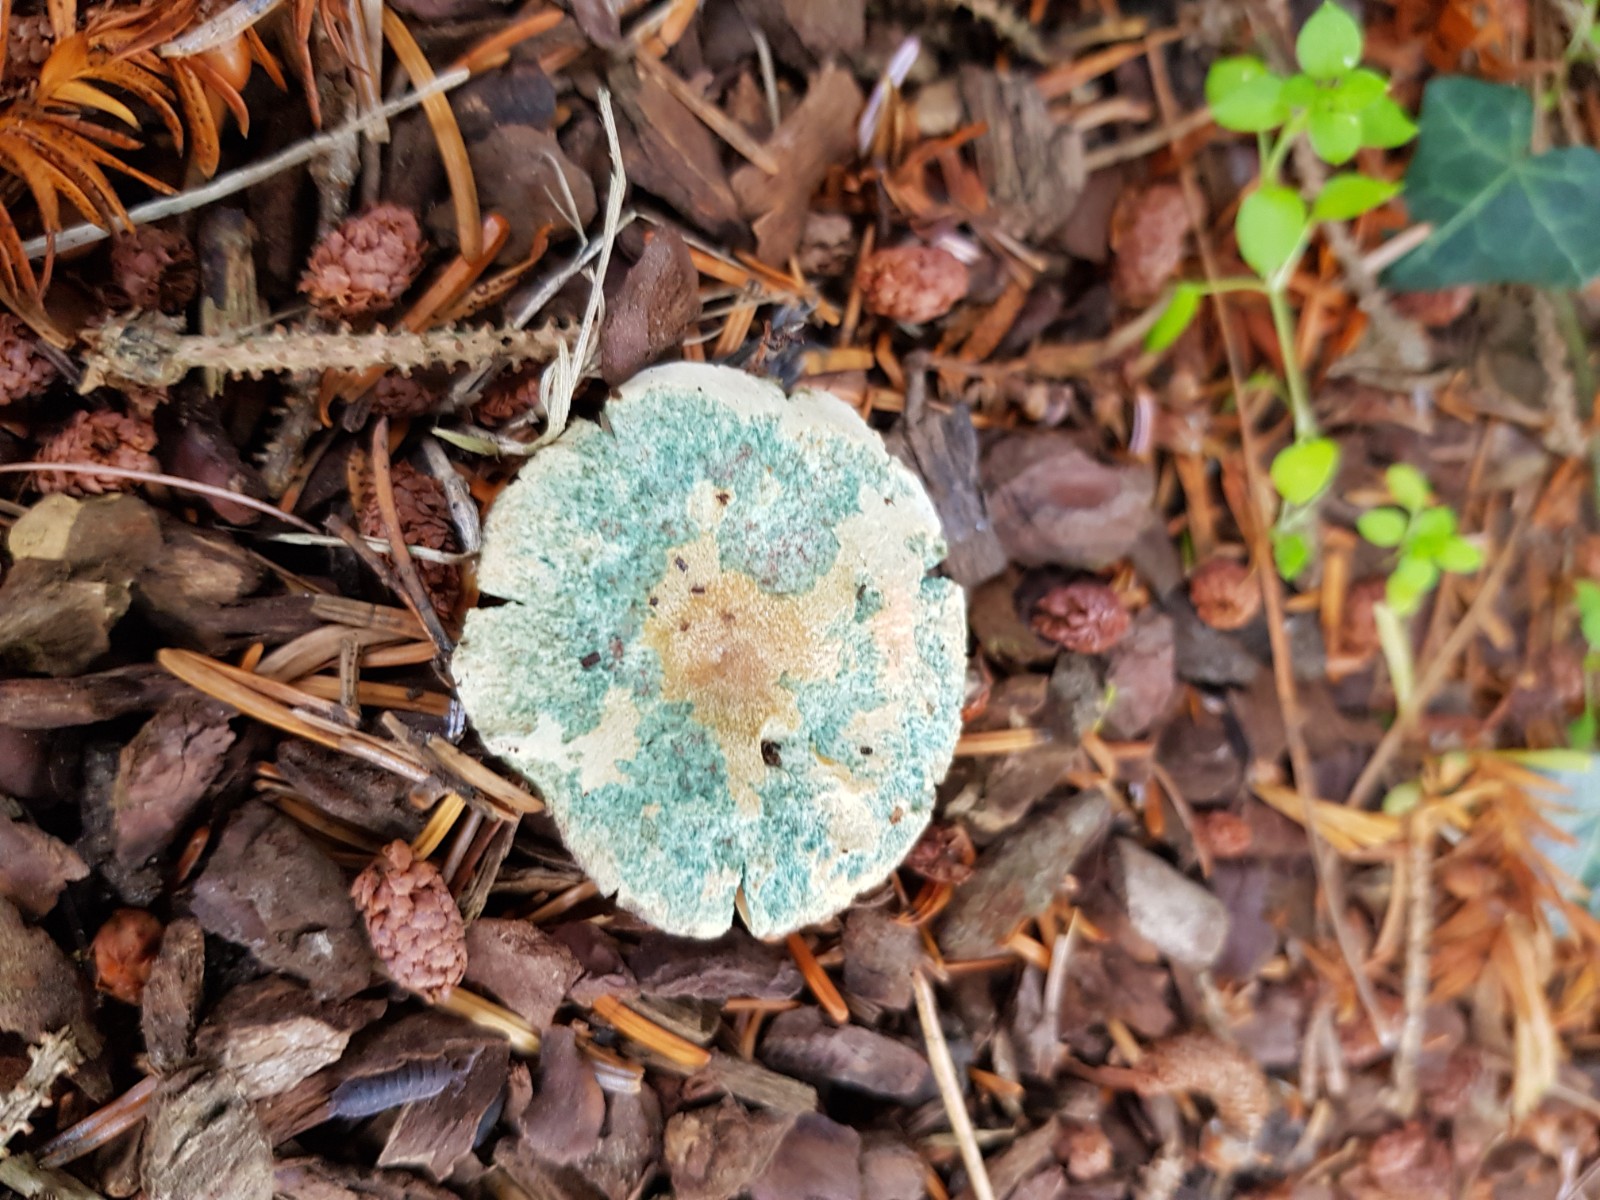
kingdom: Fungi
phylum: Basidiomycota
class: Agaricomycetes
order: Russulales
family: Russulaceae
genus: Lactarius
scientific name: Lactarius deterrimus
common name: gran-mælkehat
